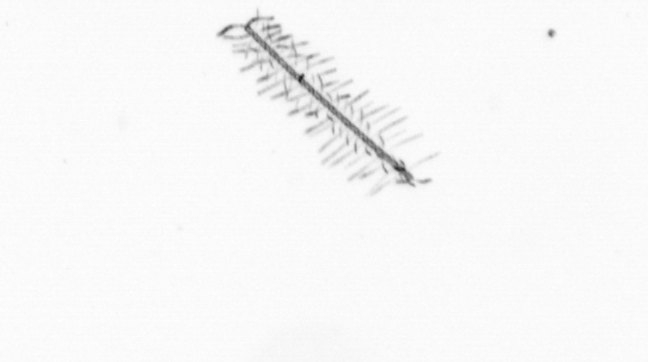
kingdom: Chromista
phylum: Ochrophyta
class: Bacillariophyceae
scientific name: Bacillariophyceae
